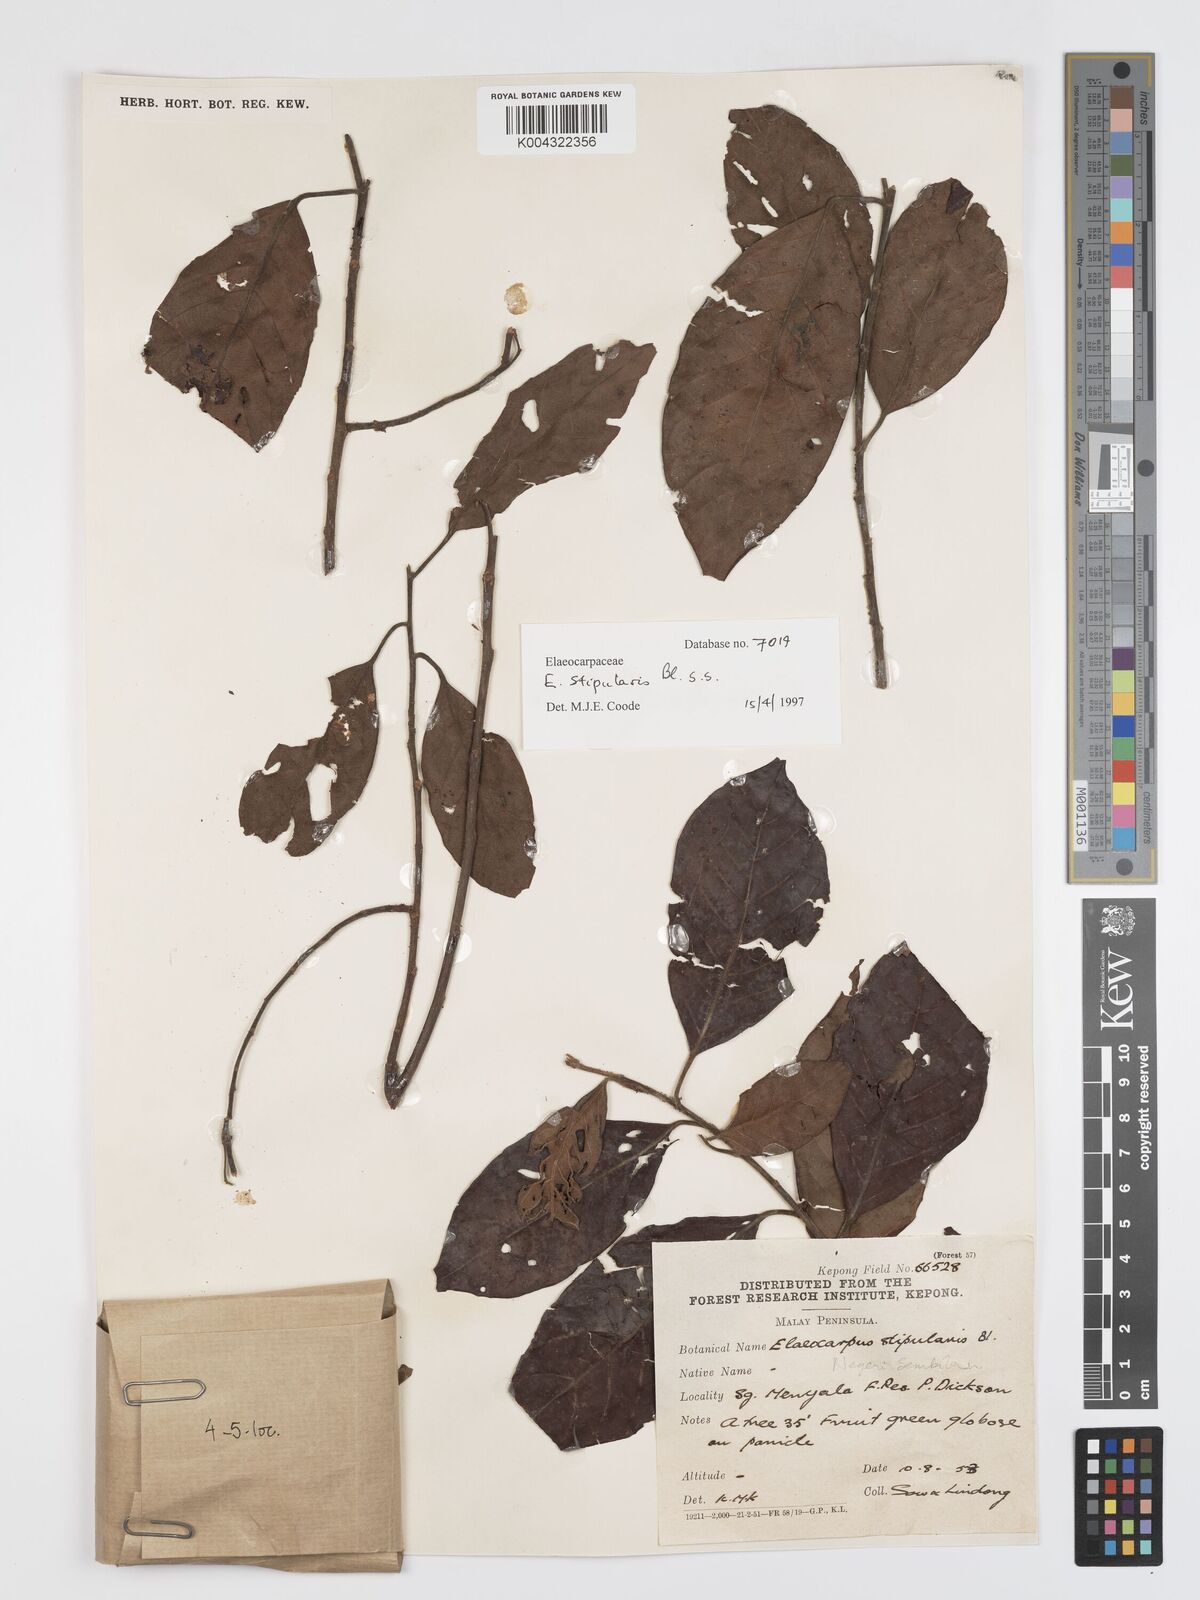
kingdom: Plantae
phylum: Tracheophyta
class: Magnoliopsida
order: Oxalidales
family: Elaeocarpaceae
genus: Elaeocarpus
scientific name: Elaeocarpus stipularis
